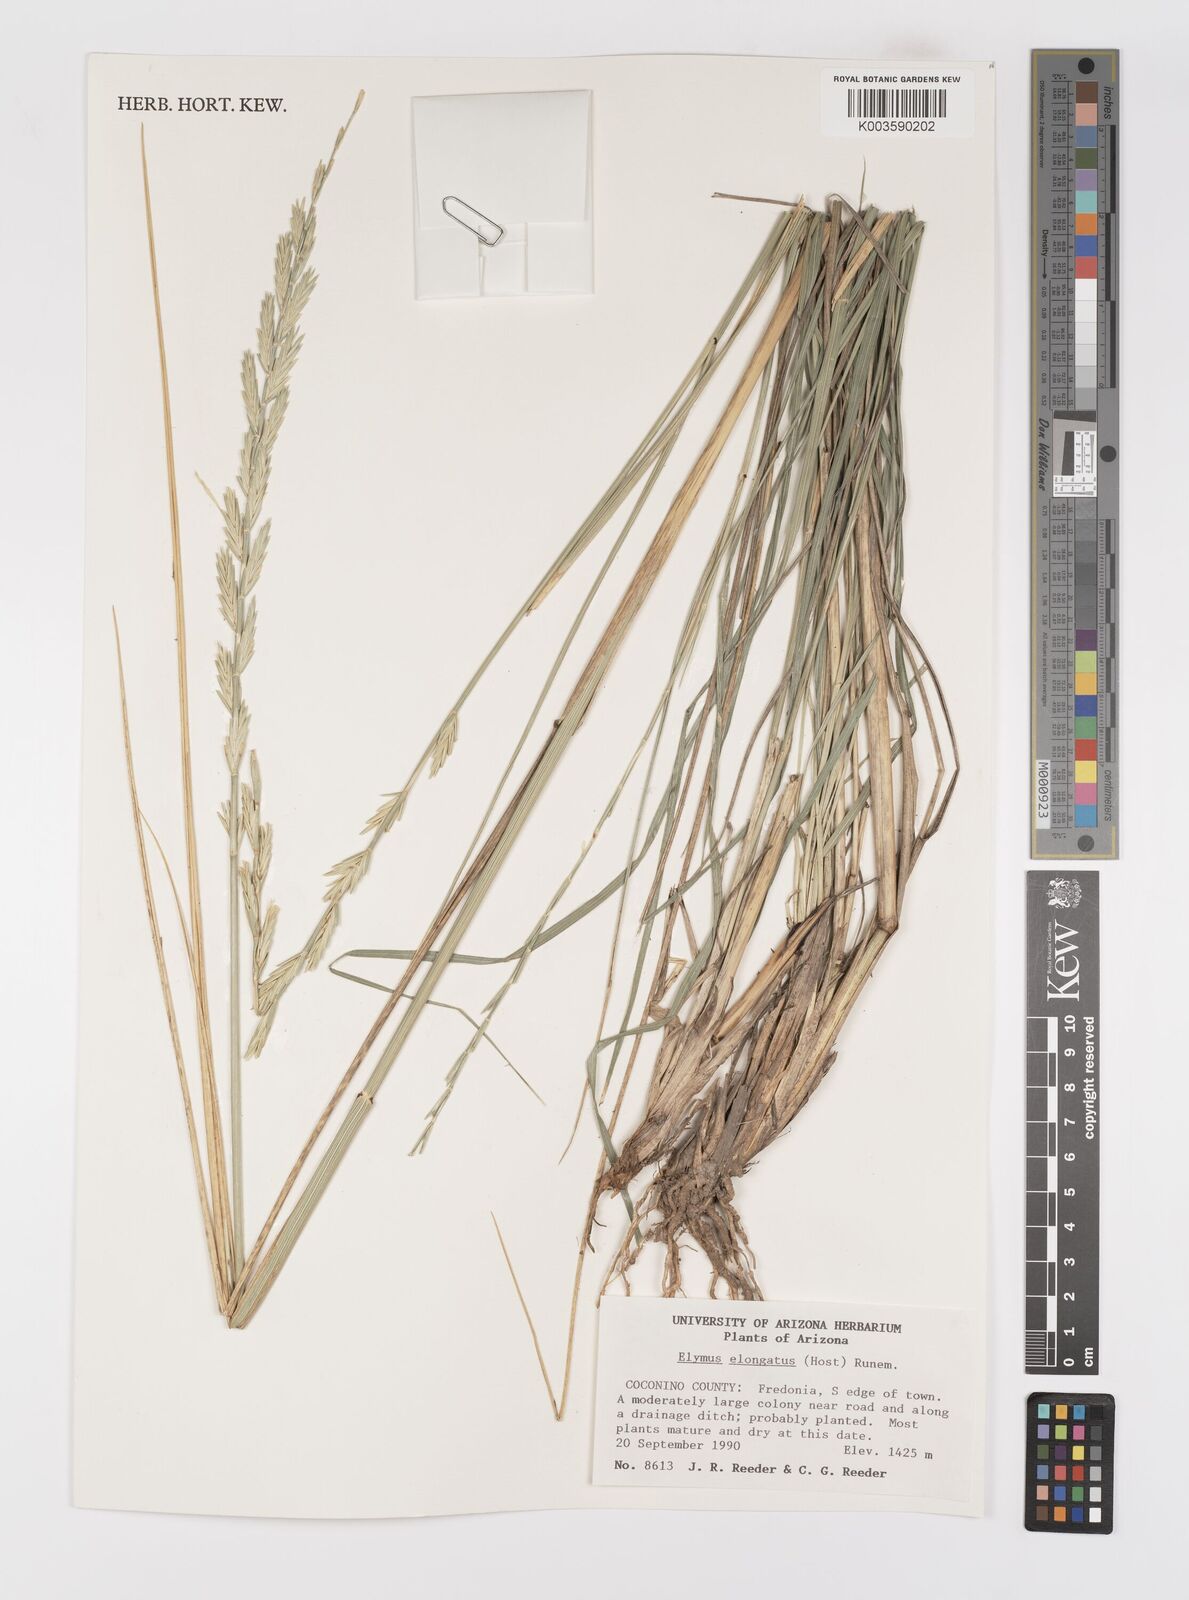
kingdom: Plantae
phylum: Tracheophyta
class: Liliopsida
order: Poales
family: Poaceae
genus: Thinopyrum
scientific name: Thinopyrum elongatum
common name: Tall wheatgrass
